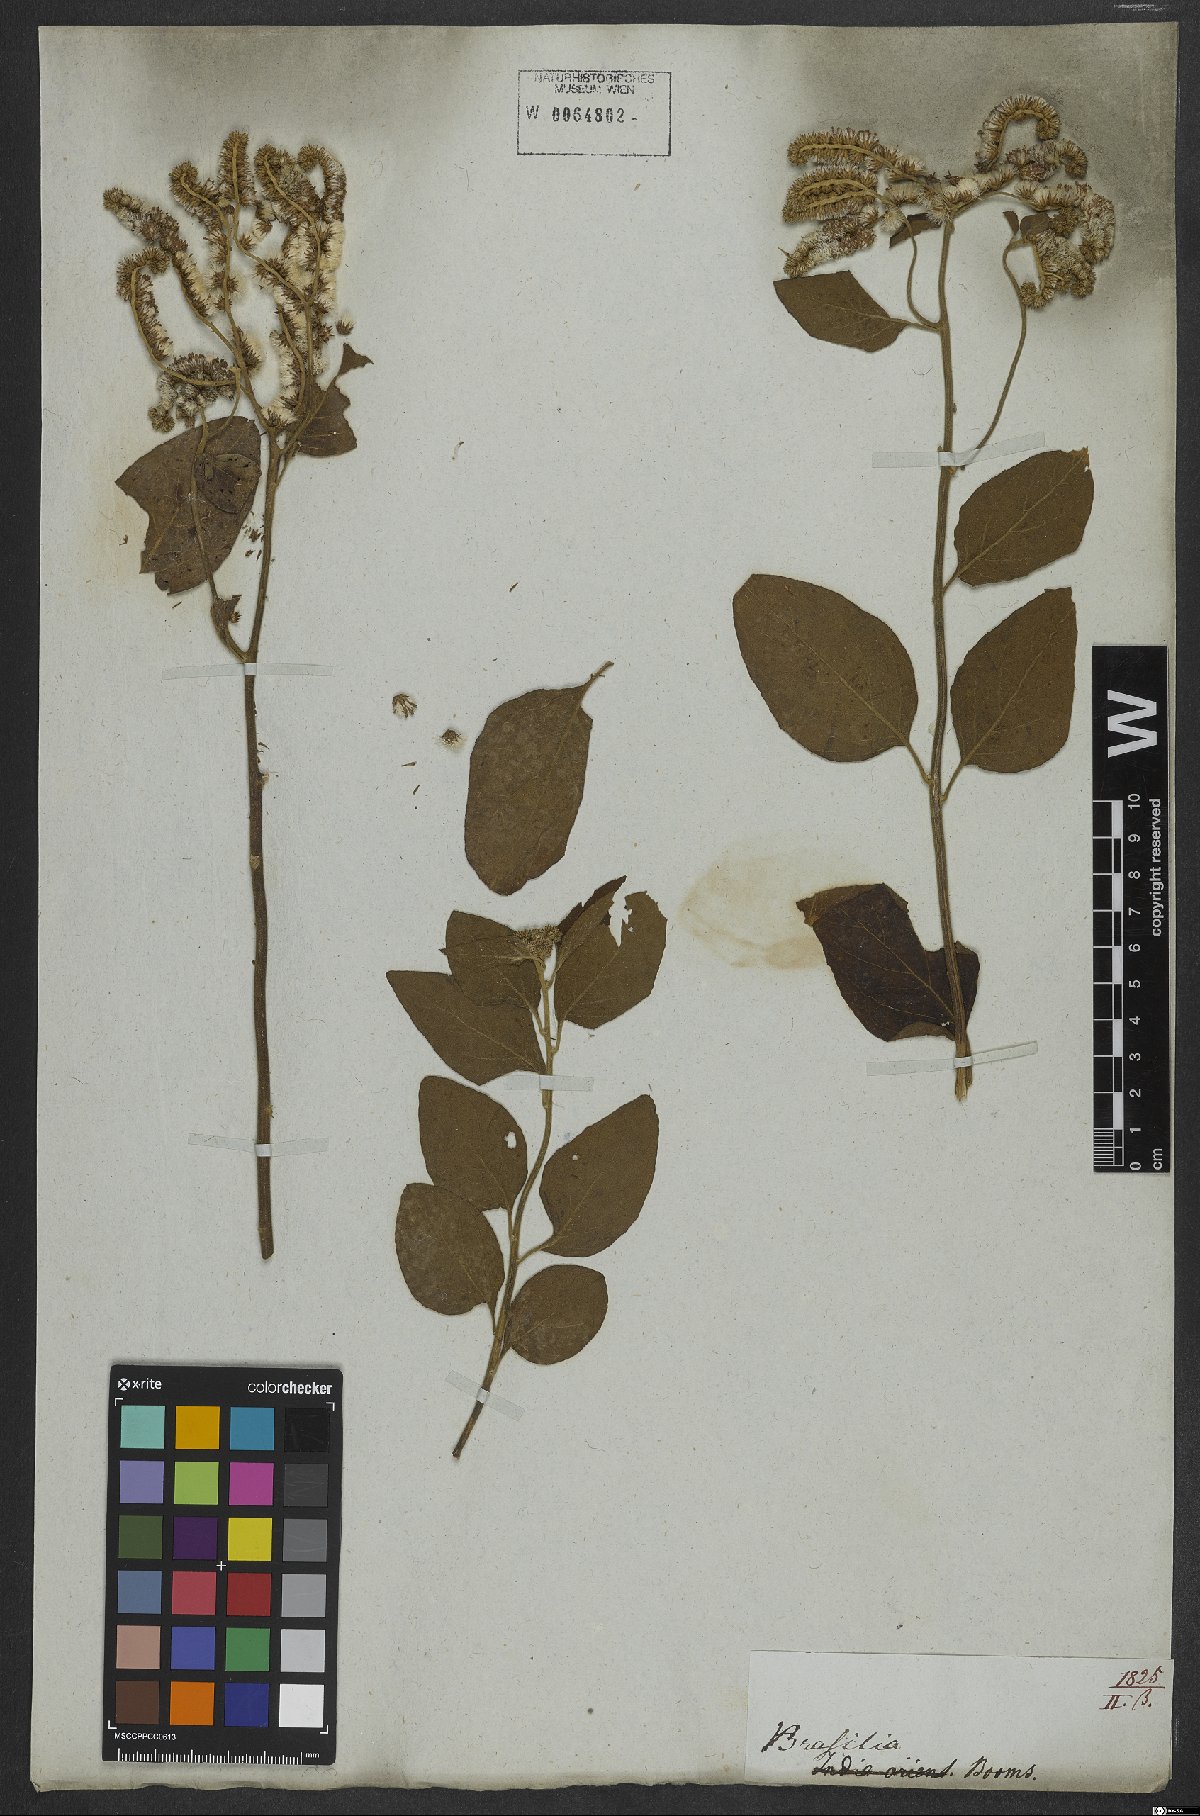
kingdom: Plantae
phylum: Tracheophyta
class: Magnoliopsida
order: Asterales
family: Asteraceae
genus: Cyrtocymura
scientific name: Cyrtocymura scorpioides
